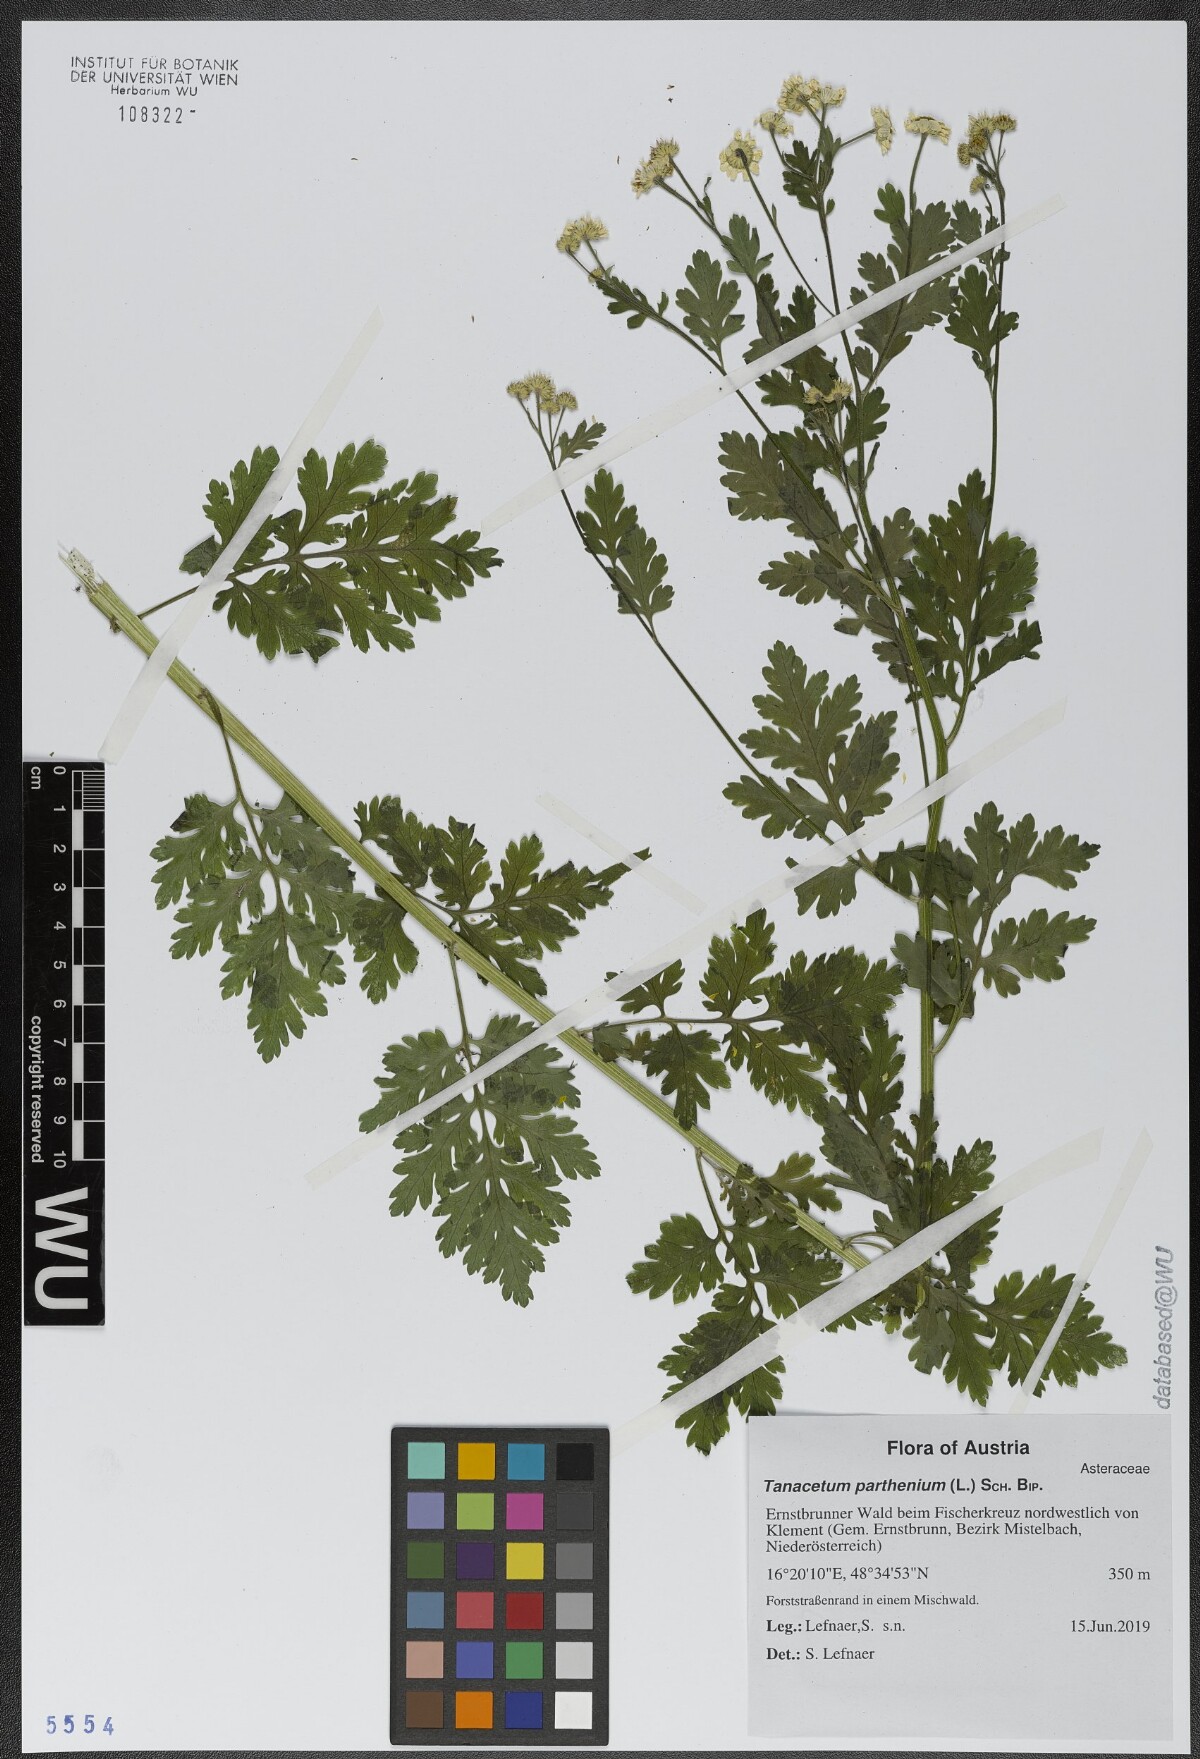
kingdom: Plantae
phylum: Tracheophyta
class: Magnoliopsida
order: Asterales
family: Asteraceae
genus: Tanacetum
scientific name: Tanacetum parthenium
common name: Feverfew
